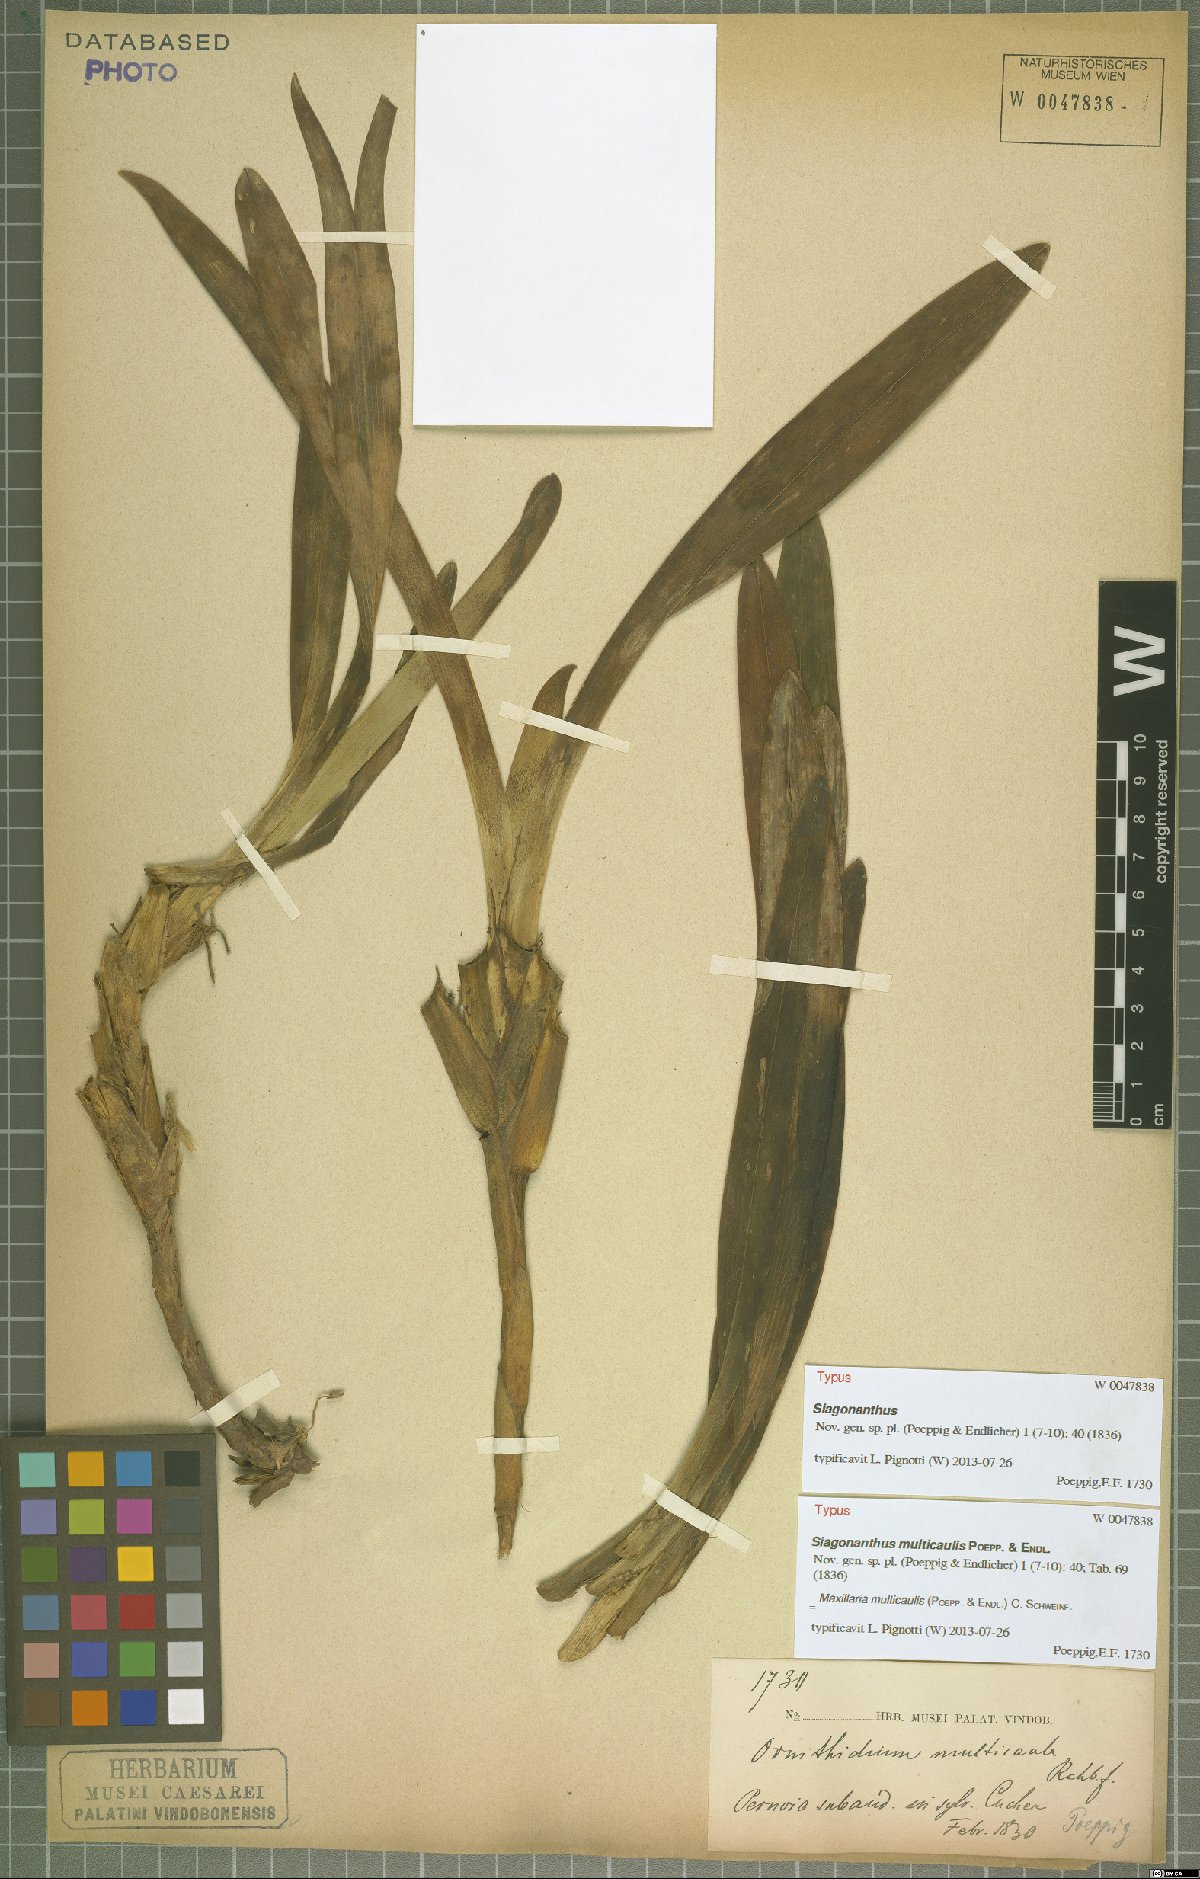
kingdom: Plantae
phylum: Tracheophyta
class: Liliopsida
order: Asparagales
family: Orchidaceae
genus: Maxillaria
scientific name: Maxillaria multicaulis
